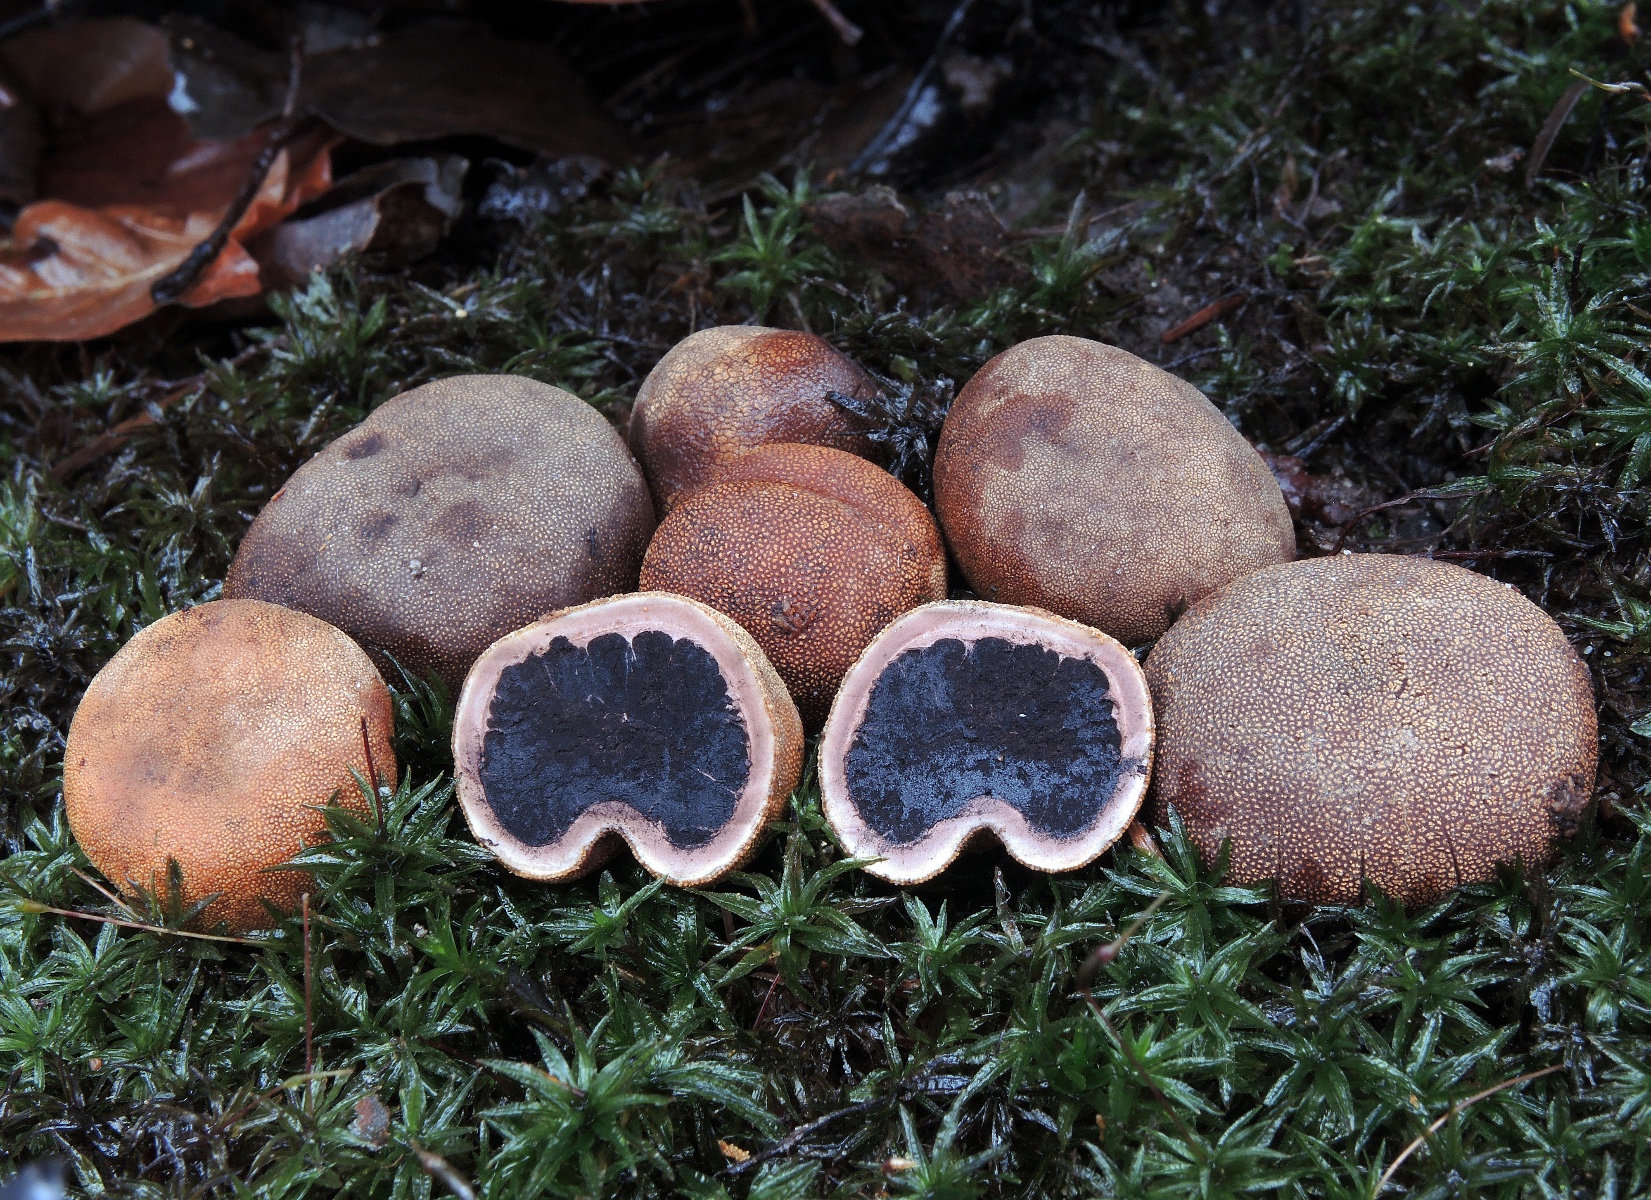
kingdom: Fungi
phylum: Ascomycota
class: Eurotiomycetes
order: Eurotiales
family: Elaphomycetaceae
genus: Elaphomyces
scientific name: Elaphomyces asperulus
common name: vinrød hjortetrøffel
